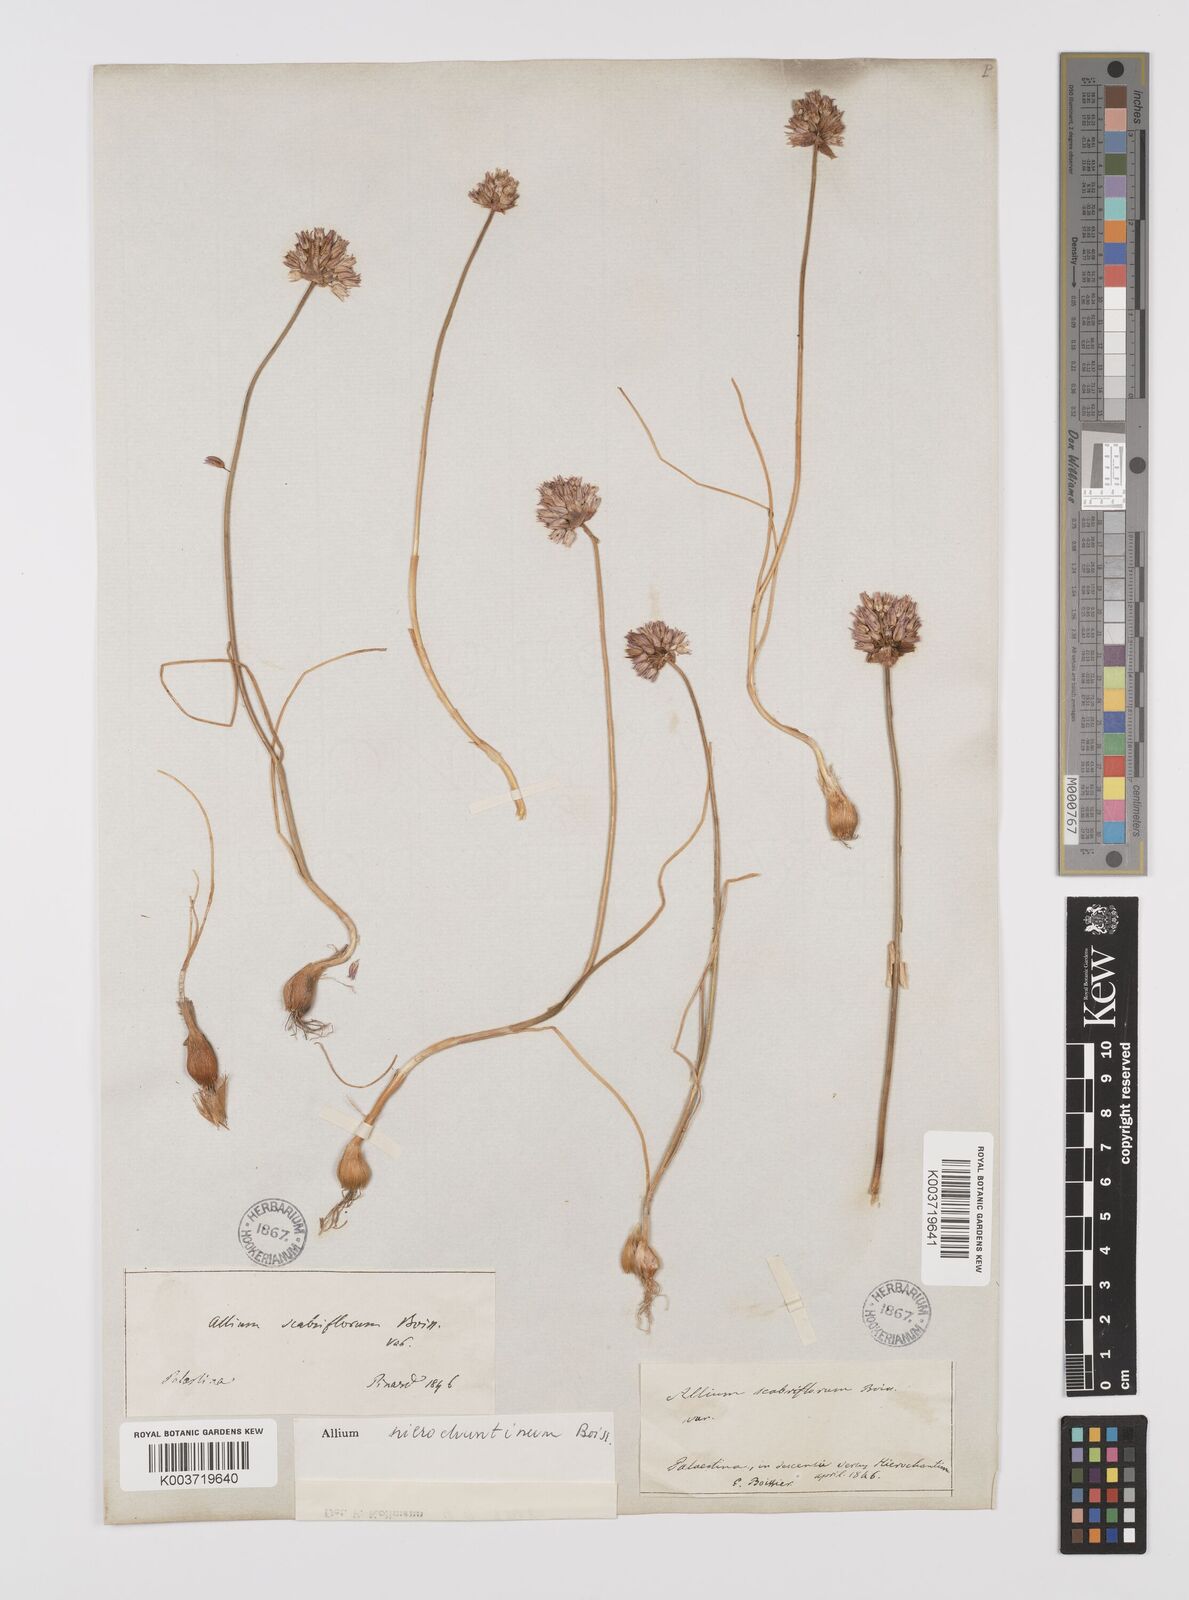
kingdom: Plantae
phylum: Tracheophyta
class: Liliopsida
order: Asparagales
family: Amaryllidaceae
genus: Allium
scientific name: Allium ascalonicum
